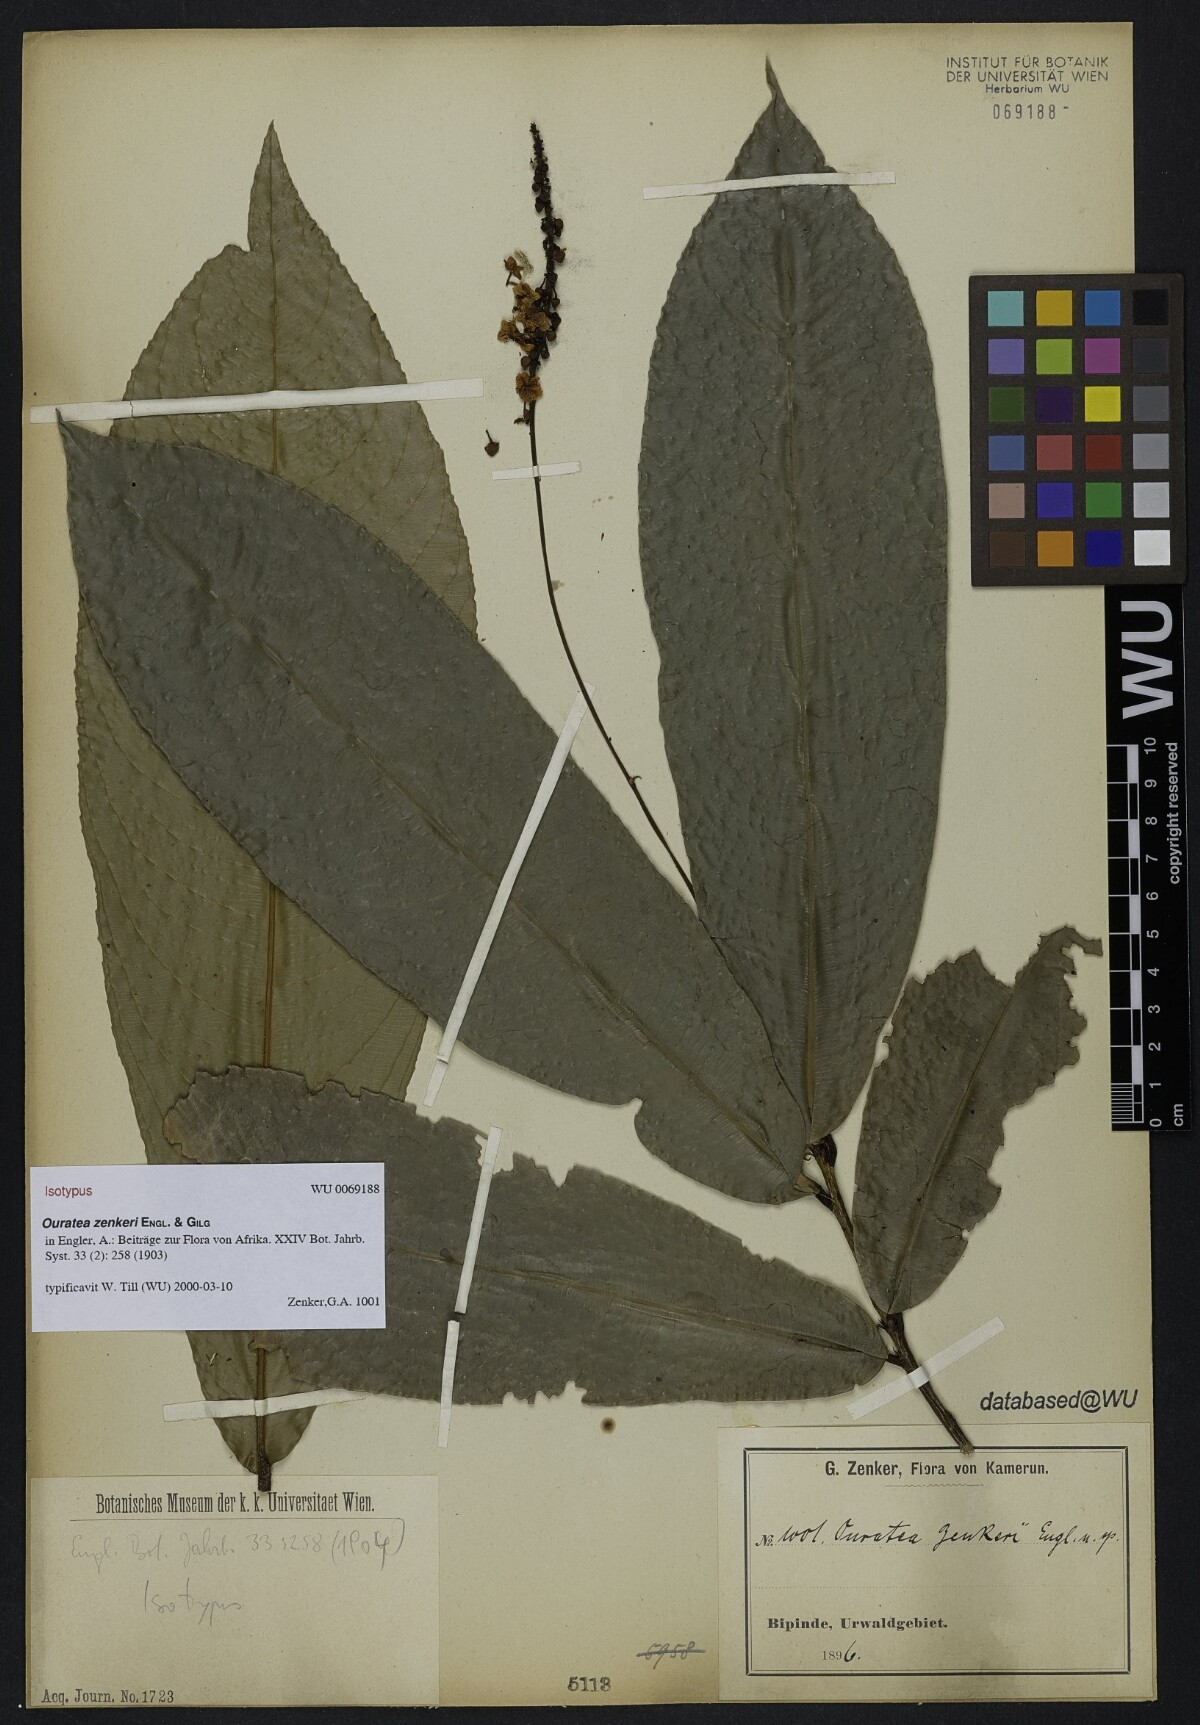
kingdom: Plantae
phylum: Tracheophyta
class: Magnoliopsida
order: Malpighiales
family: Ochnaceae
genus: Campylospermum
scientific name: Campylospermum zenkeri
